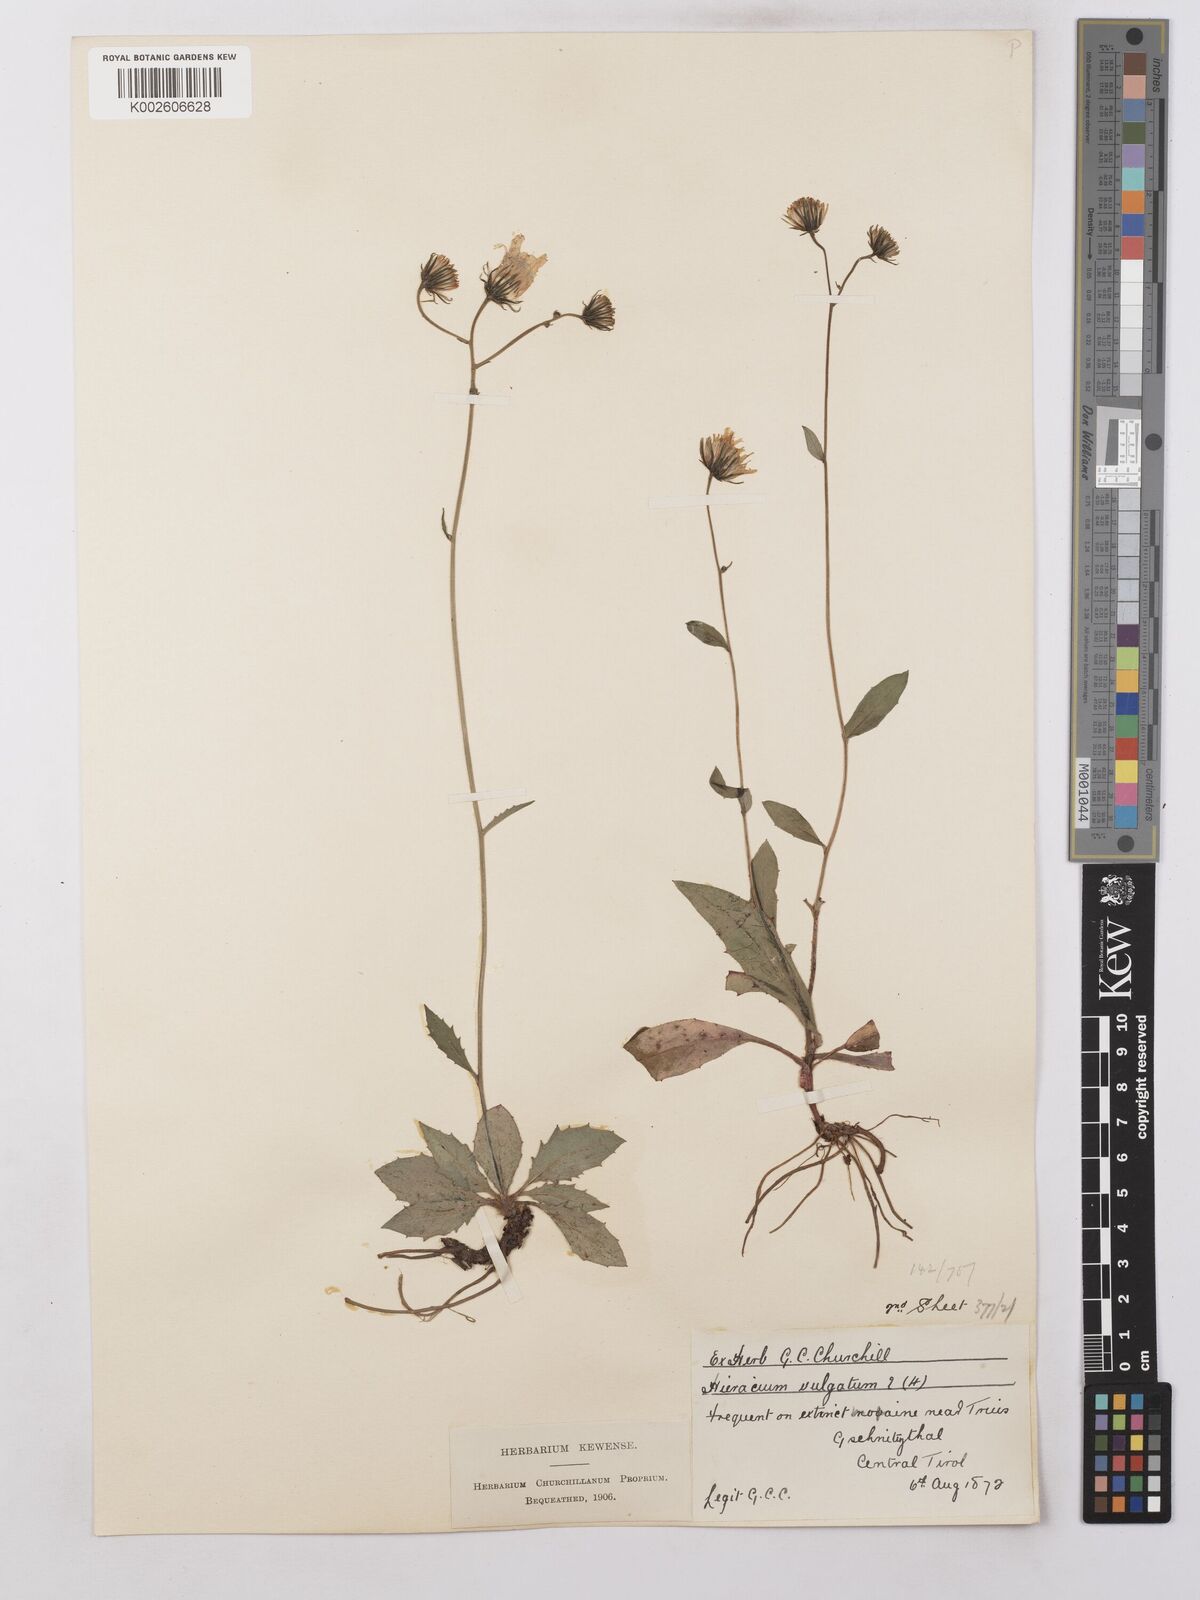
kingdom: Plantae
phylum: Tracheophyta
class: Magnoliopsida
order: Asterales
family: Asteraceae
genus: Hieracium
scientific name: Hieracium lachenalii
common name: Common hawkweed
